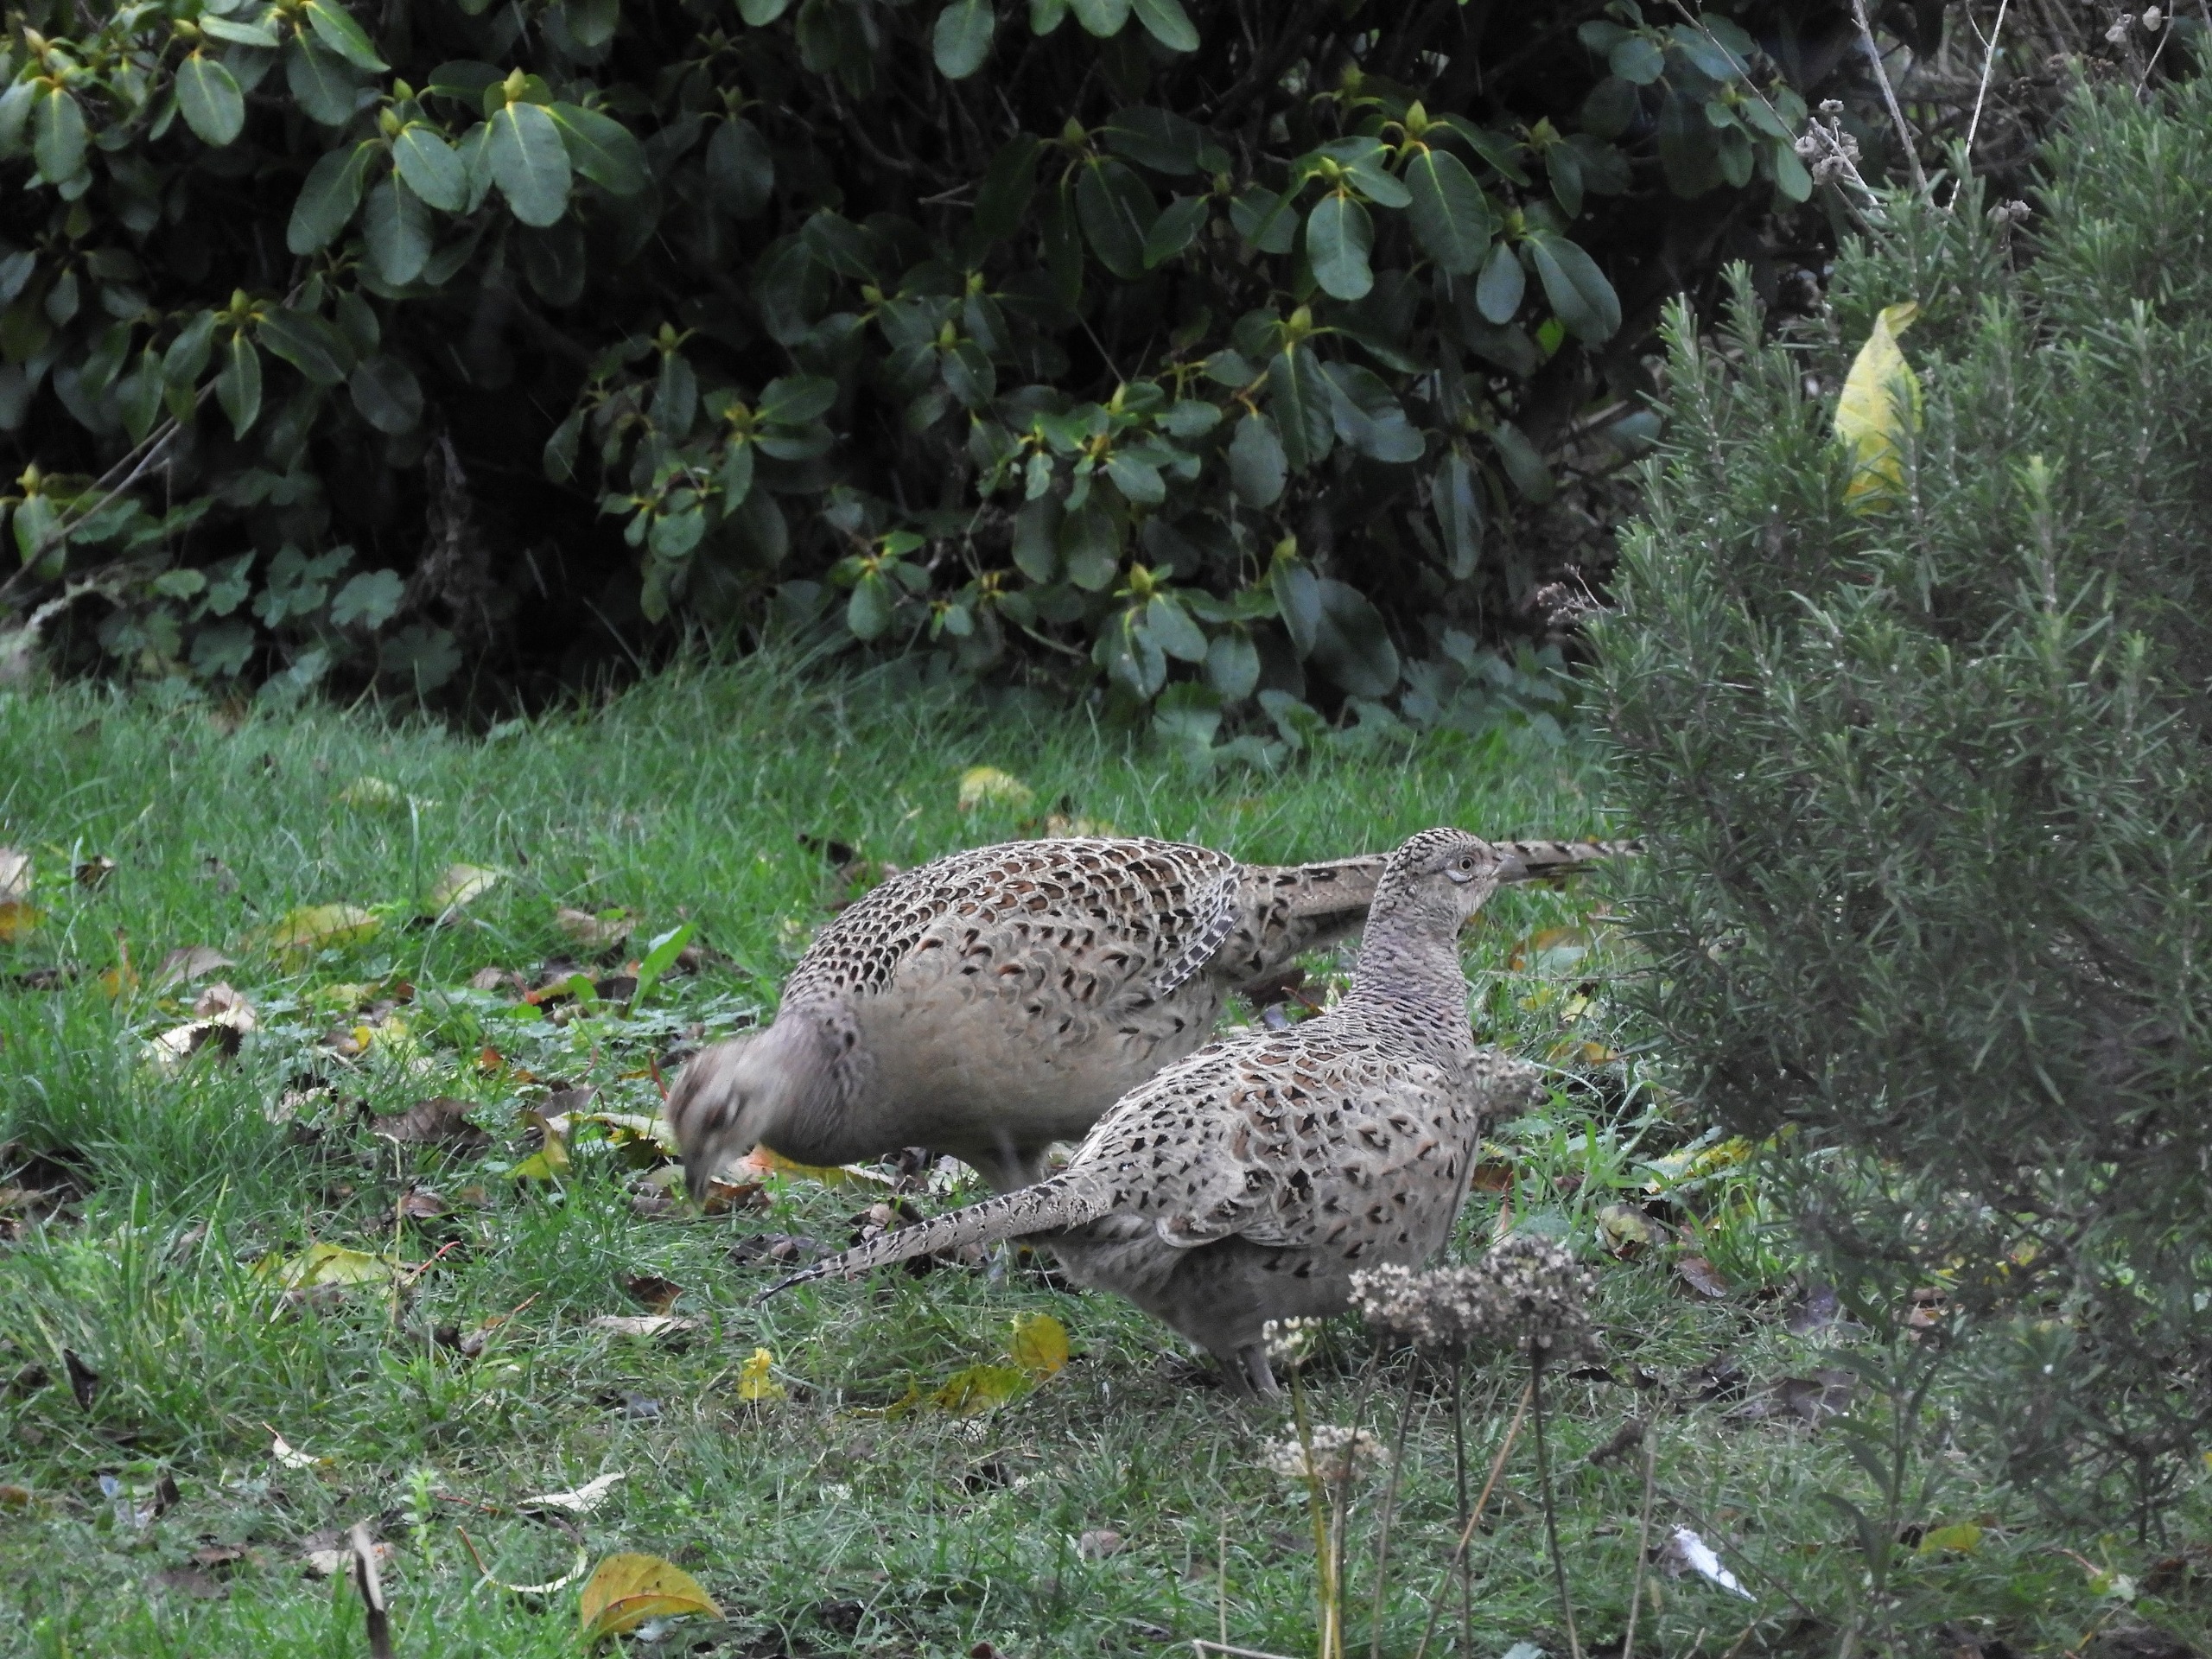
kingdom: Animalia
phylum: Chordata
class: Aves
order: Galliformes
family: Phasianidae
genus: Phasianus
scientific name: Phasianus colchicus
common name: Fasan
